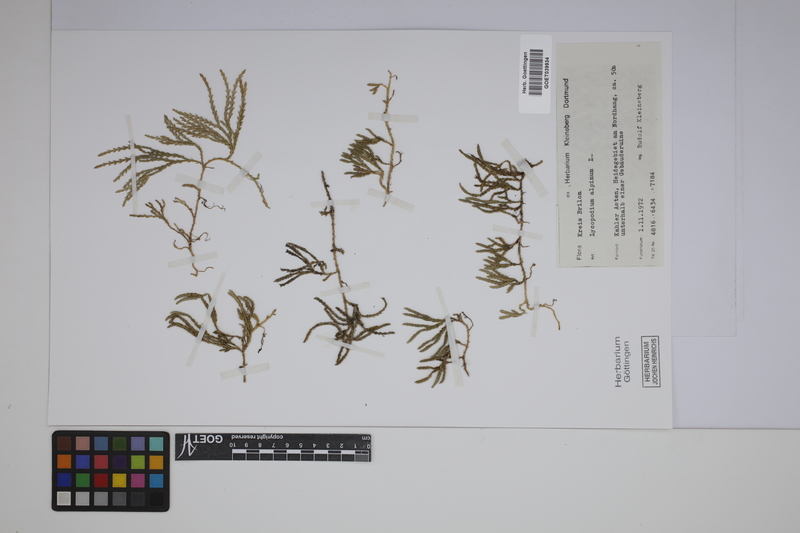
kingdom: Plantae
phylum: Tracheophyta
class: Lycopodiopsida
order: Lycopodiales
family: Lycopodiaceae
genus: Diphasiastrum
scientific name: Diphasiastrum alpinum
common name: Alpine clubmoss
